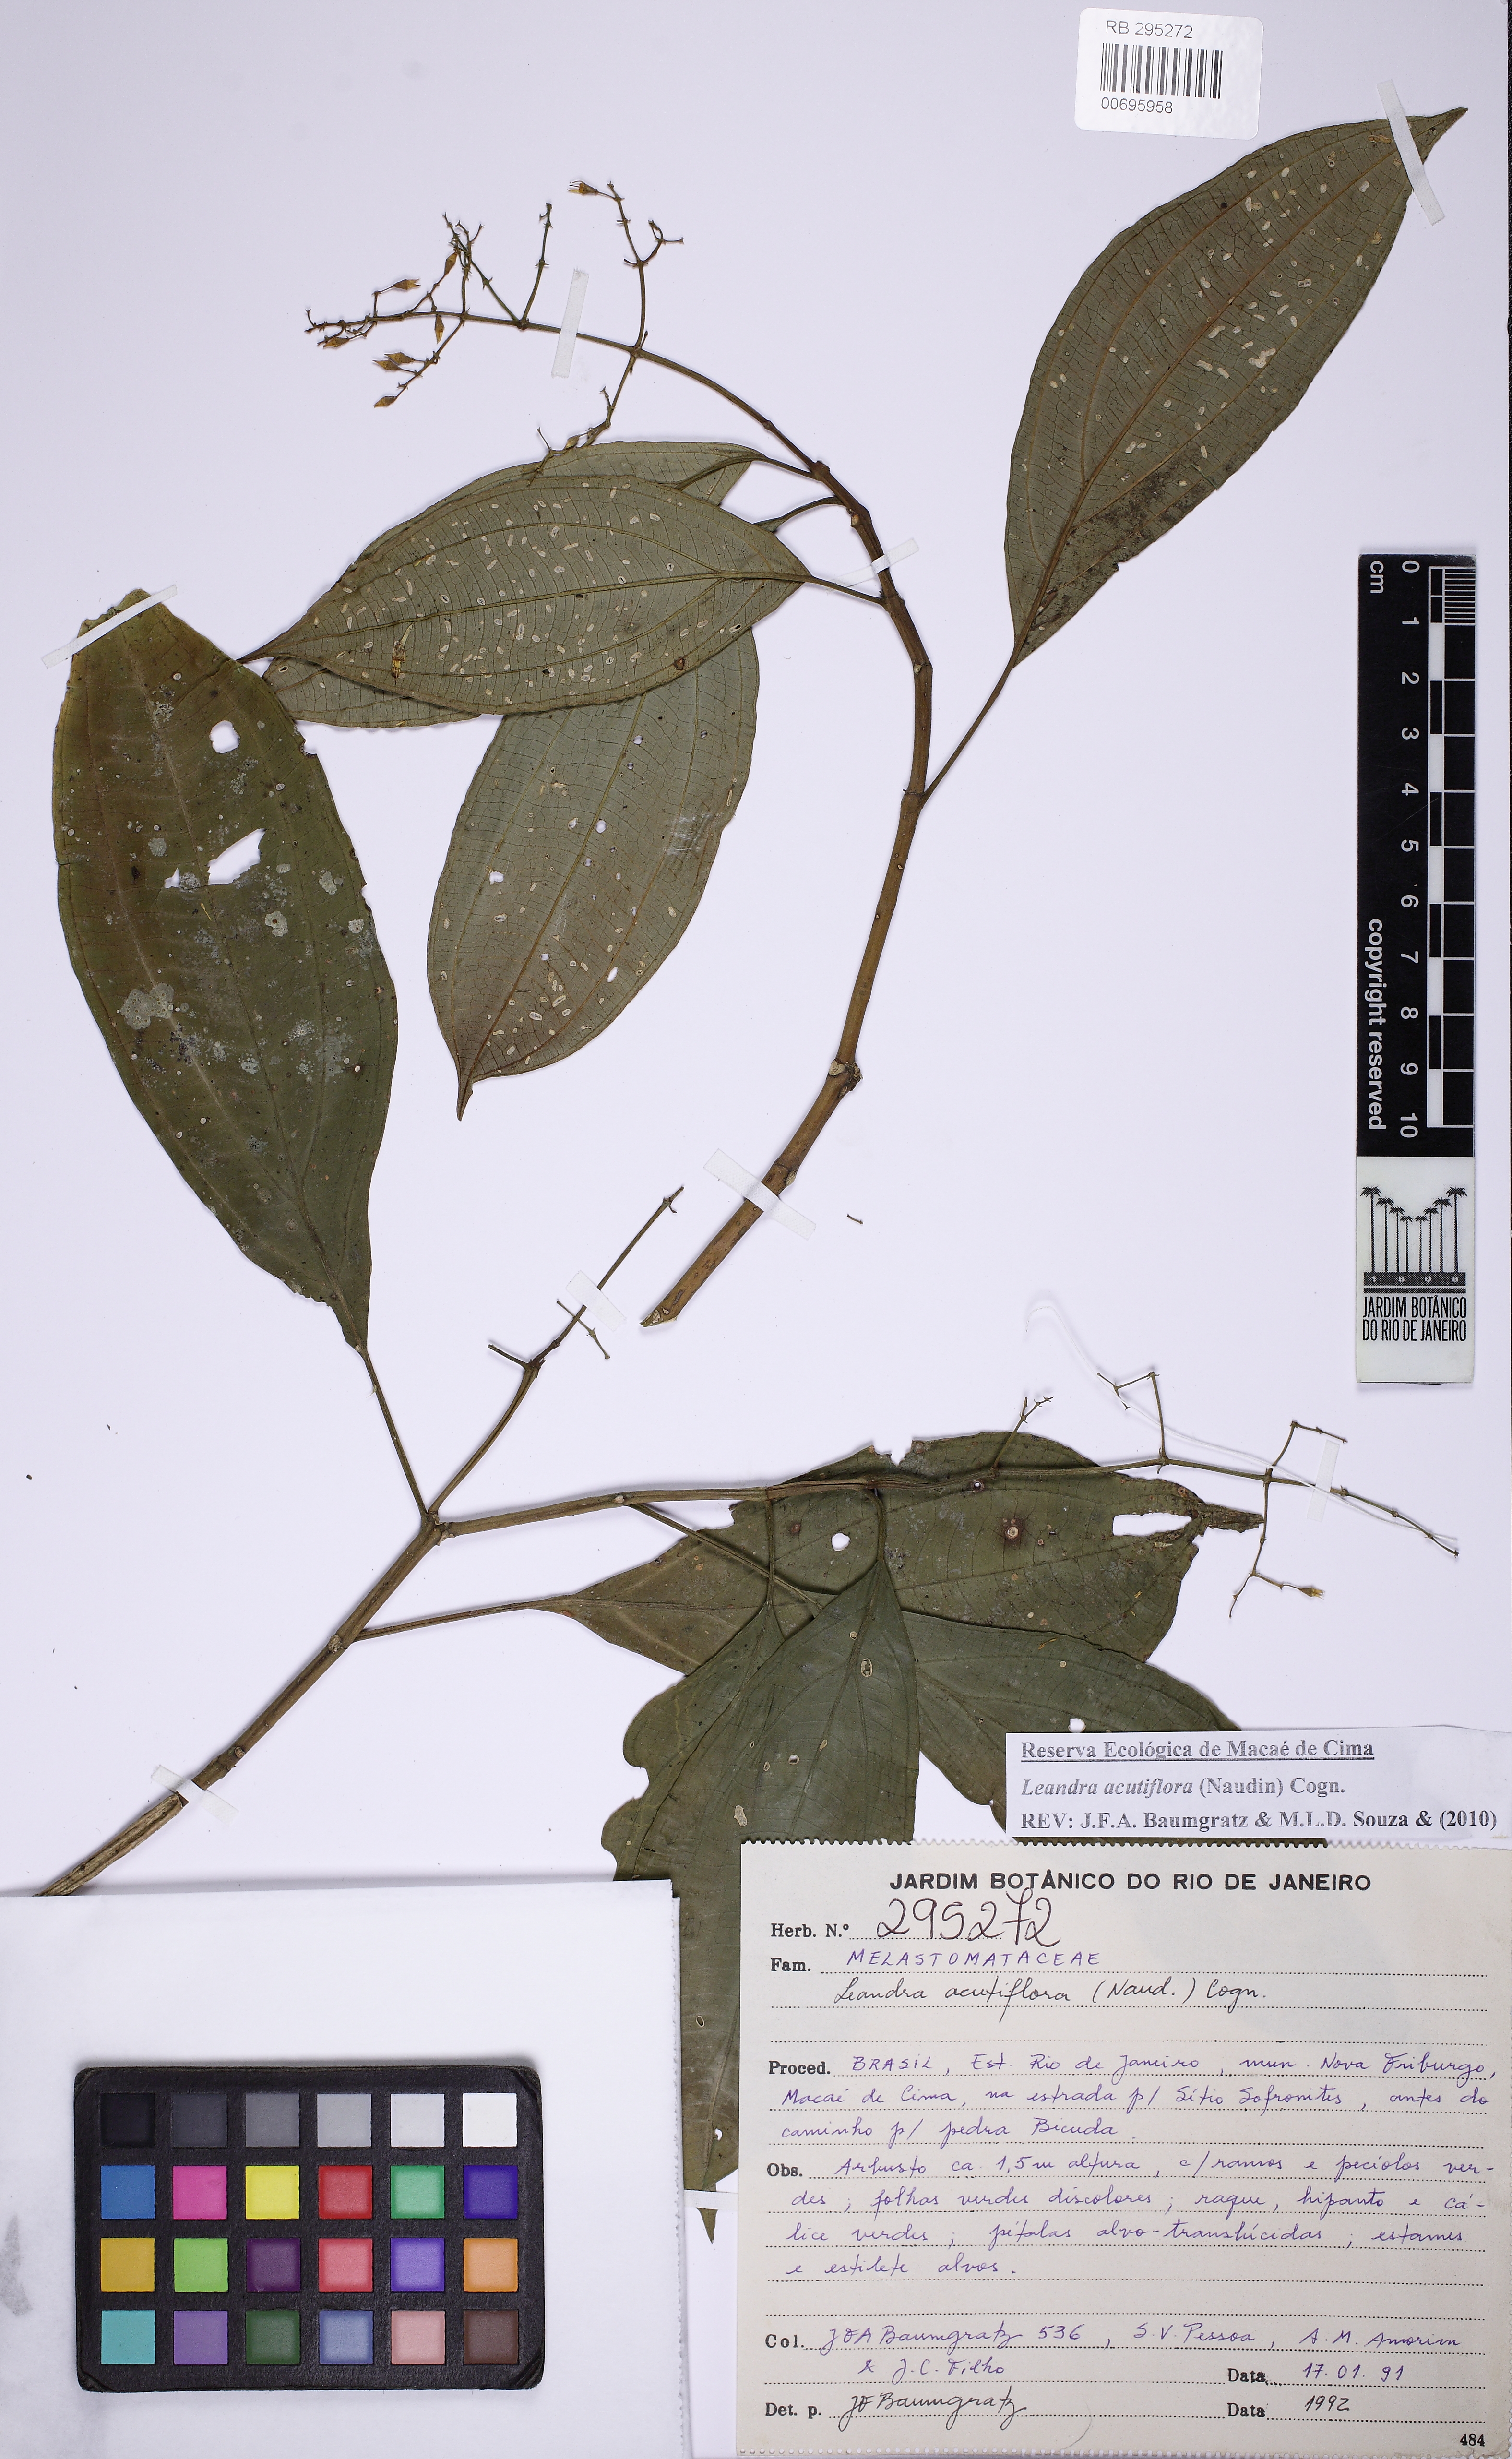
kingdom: Plantae
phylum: Tracheophyta
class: Magnoliopsida
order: Myrtales
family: Melastomataceae
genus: Miconia
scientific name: Miconia acutiflora
